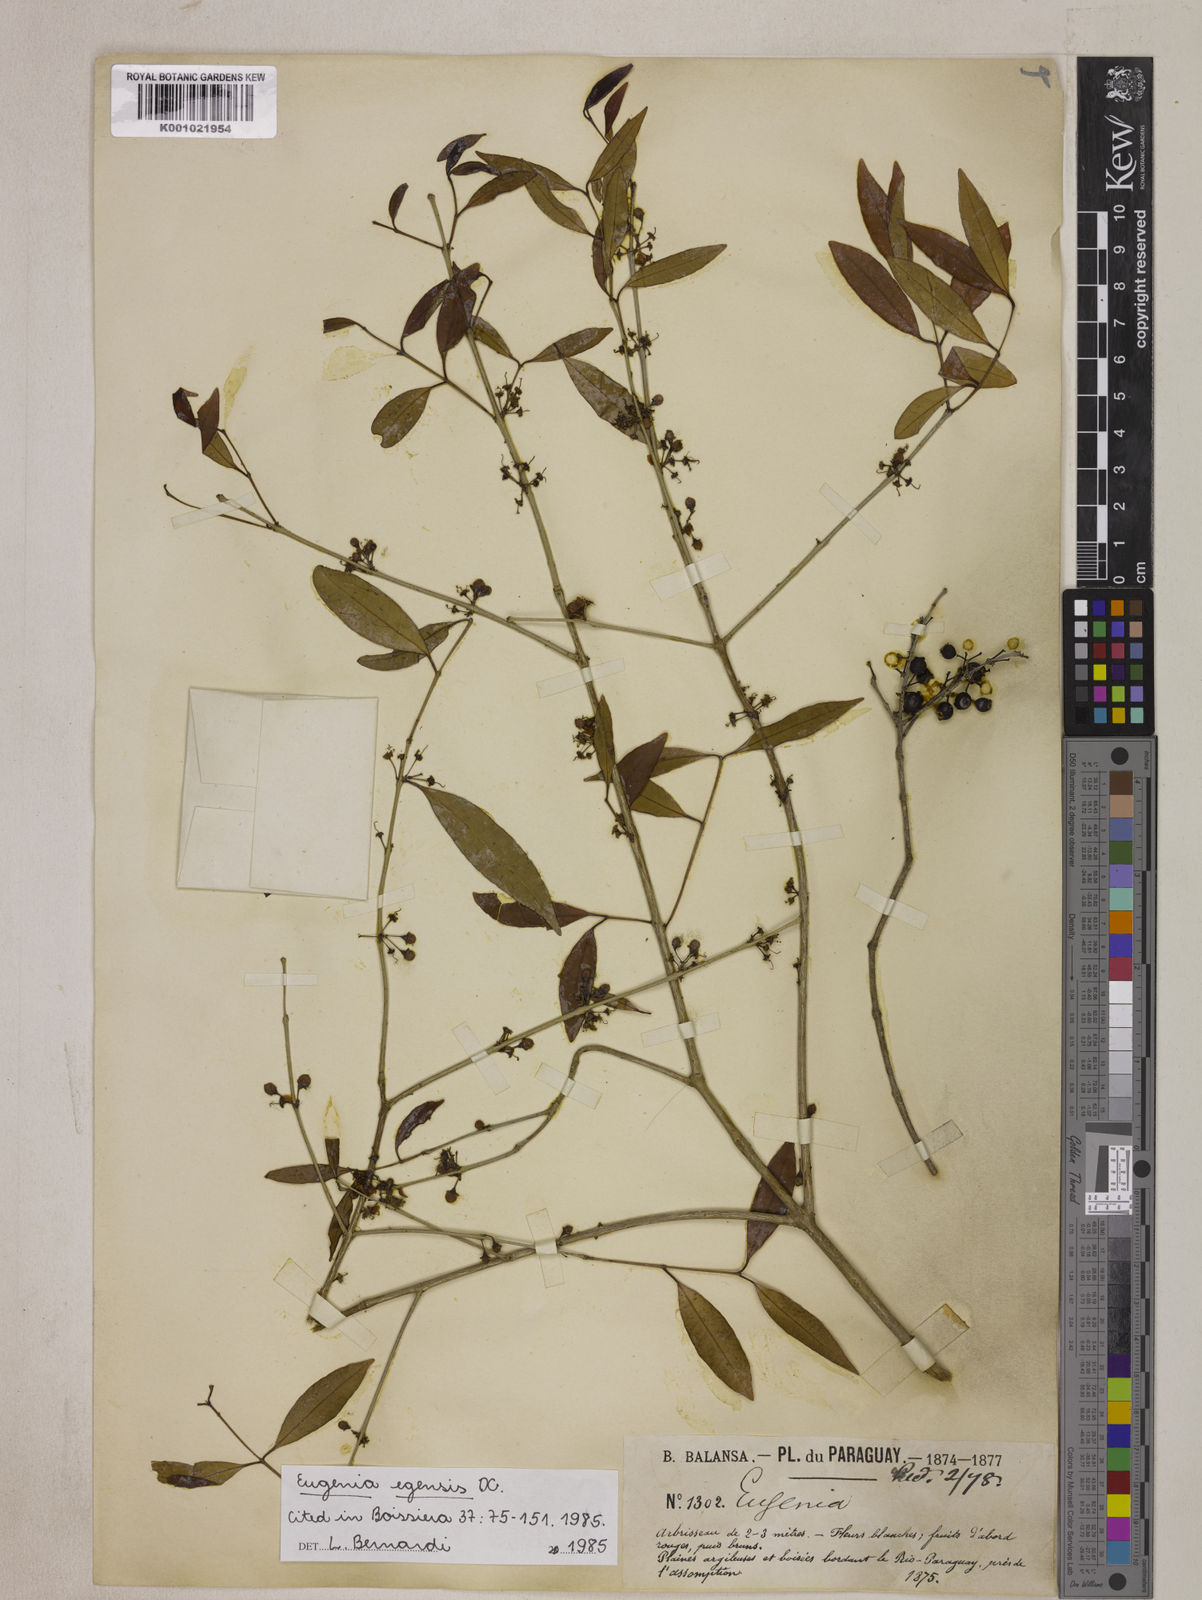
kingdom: Plantae
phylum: Tracheophyta
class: Magnoliopsida
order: Myrtales
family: Myrtaceae
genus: Eugenia
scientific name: Eugenia egensis
